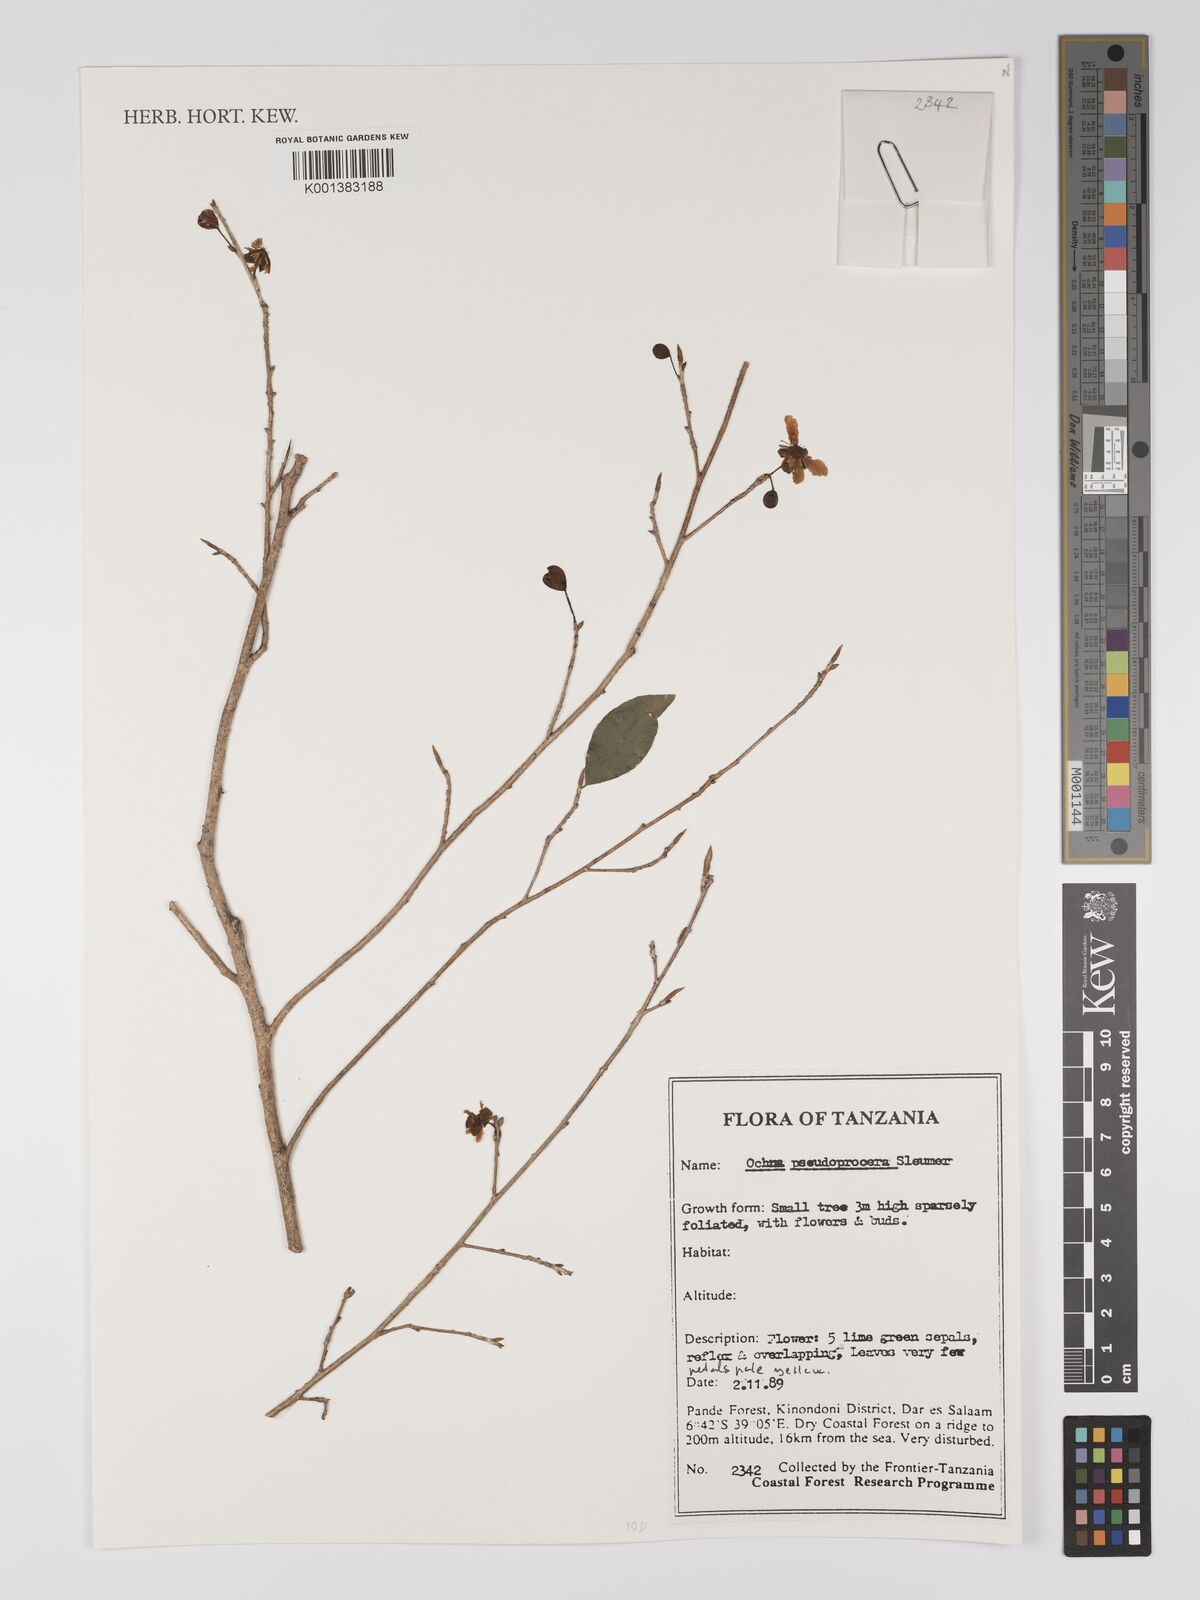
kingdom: Plantae
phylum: Tracheophyta
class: Magnoliopsida
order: Malpighiales
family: Ochnaceae
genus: Ochna
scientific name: Ochna pseudoprocera
